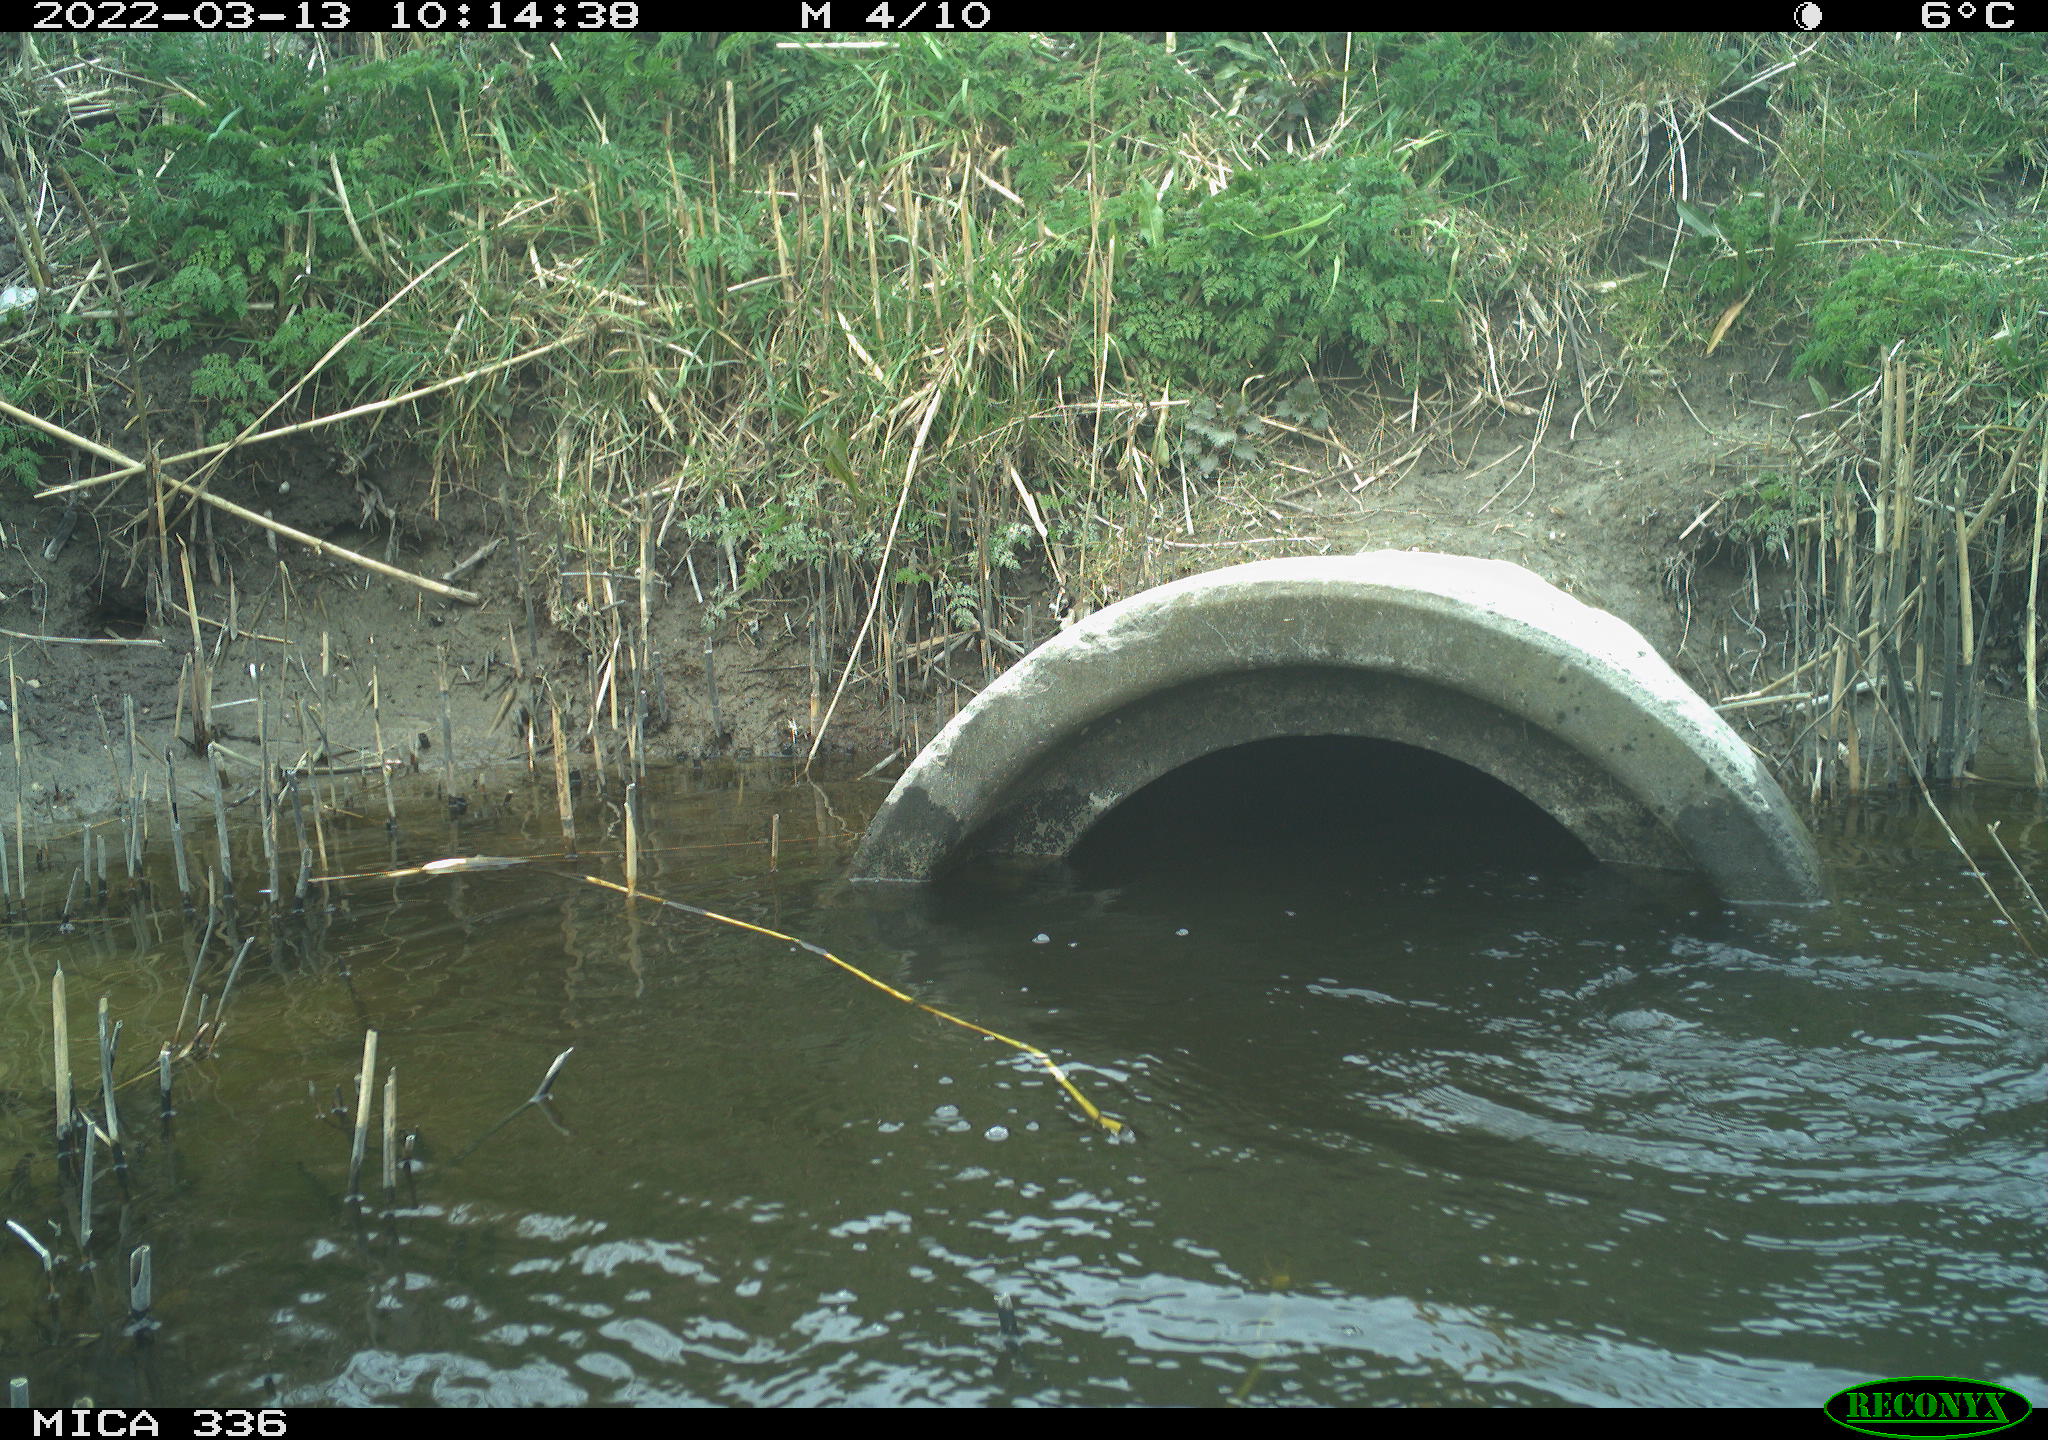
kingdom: Animalia
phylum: Chordata
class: Aves
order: Suliformes
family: Phalacrocoracidae
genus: Phalacrocorax
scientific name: Phalacrocorax carbo
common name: Great cormorant
